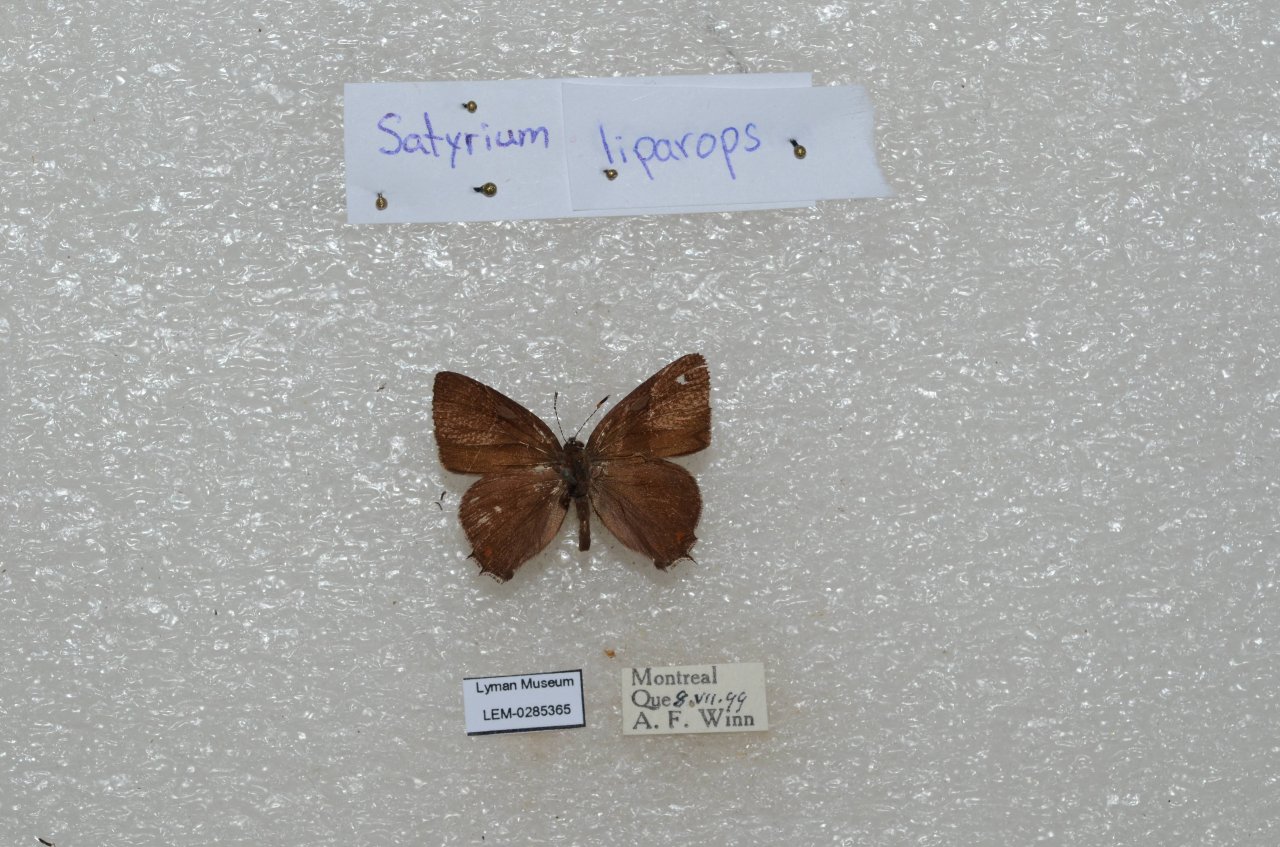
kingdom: Animalia
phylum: Arthropoda
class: Insecta
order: Lepidoptera
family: Lycaenidae
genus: Satyrium
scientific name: Satyrium liparops
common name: Striped Hairstreak
